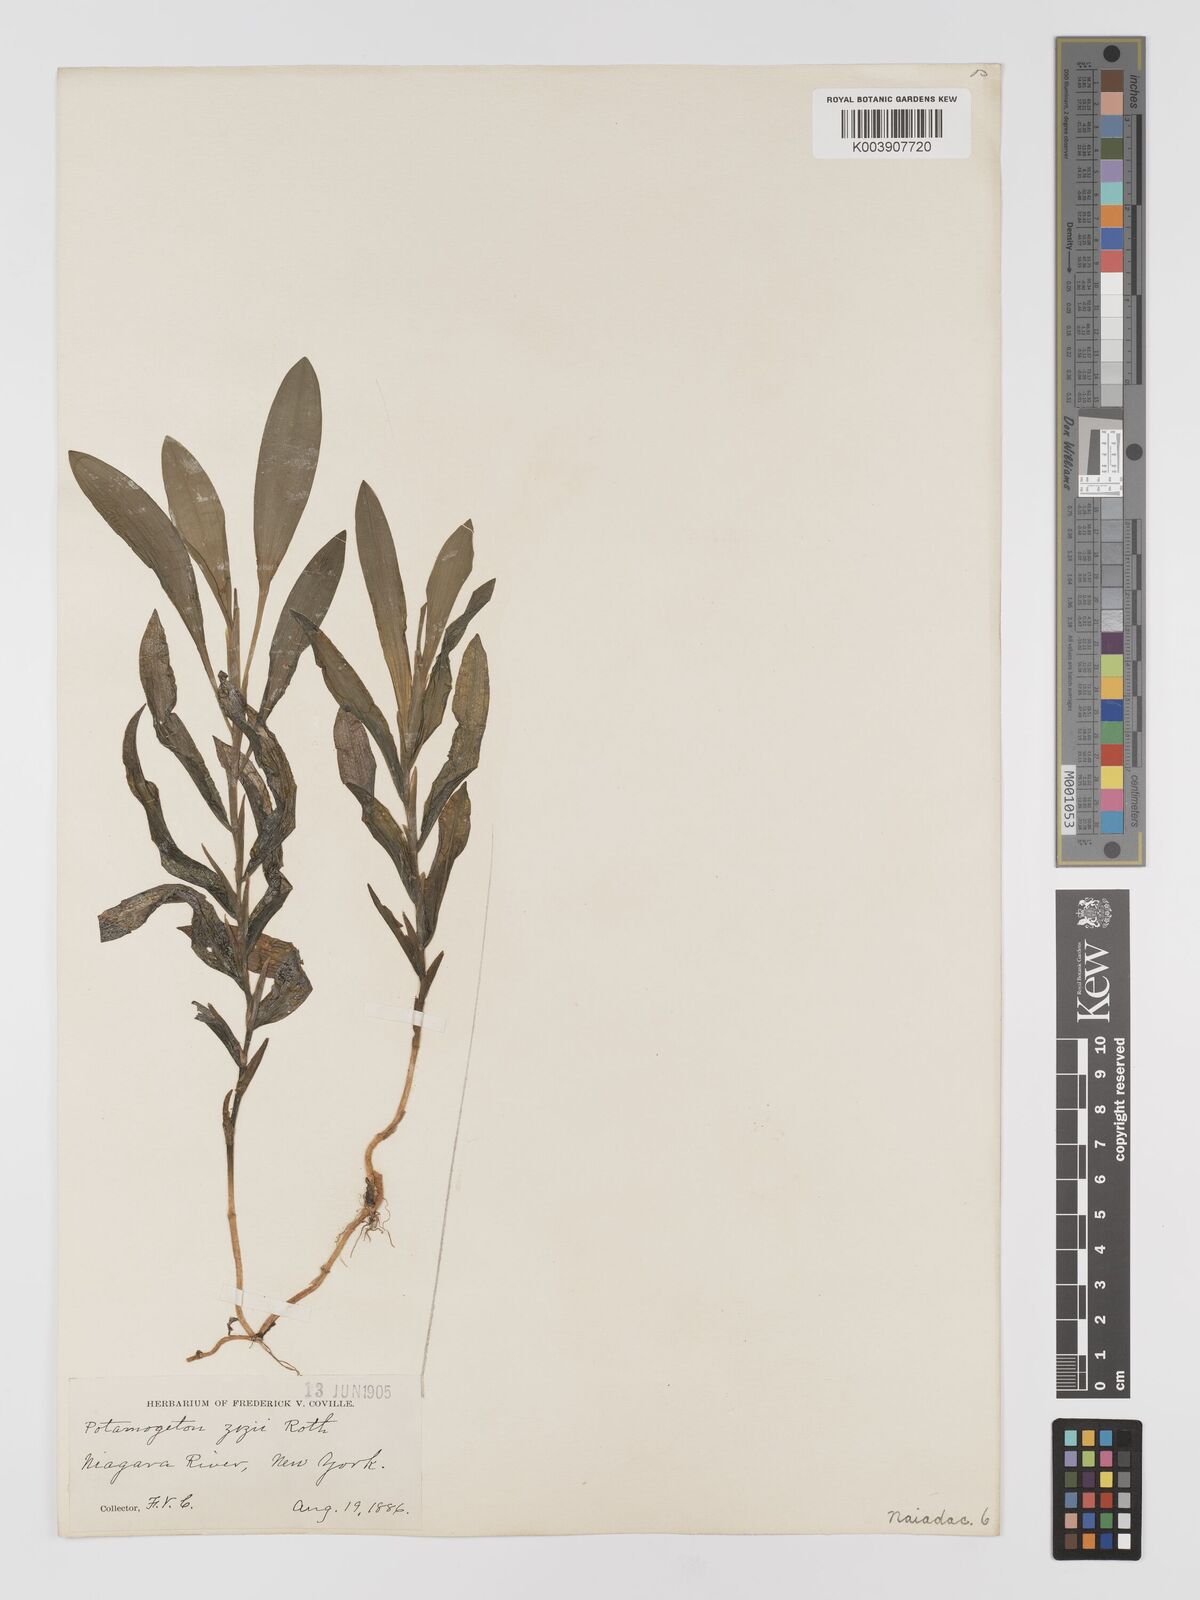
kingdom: Plantae
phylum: Tracheophyta
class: Liliopsida
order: Alismatales
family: Potamogetonaceae
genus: Potamogeton
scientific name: Potamogeton lucens
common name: Shining pondweed
